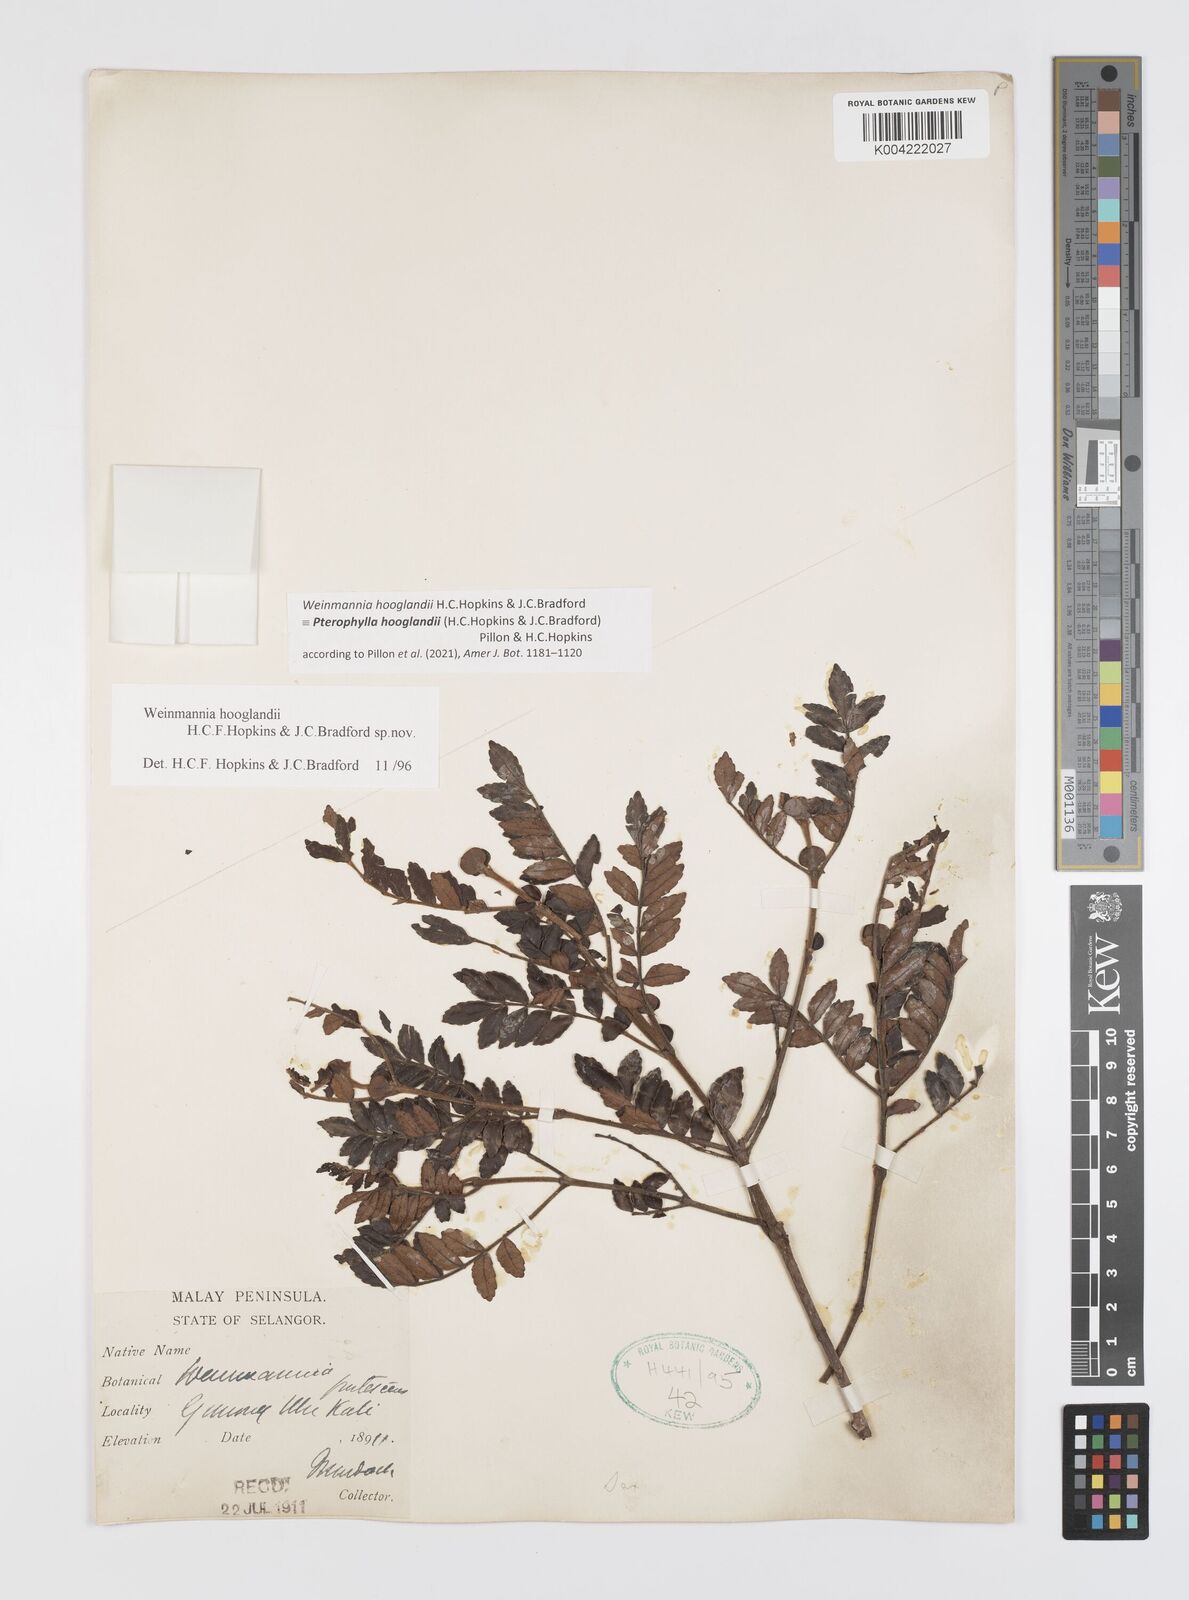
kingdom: Plantae
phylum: Tracheophyta
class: Magnoliopsida
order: Oxalidales
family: Cunoniaceae
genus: Pterophylla
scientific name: Pterophylla
